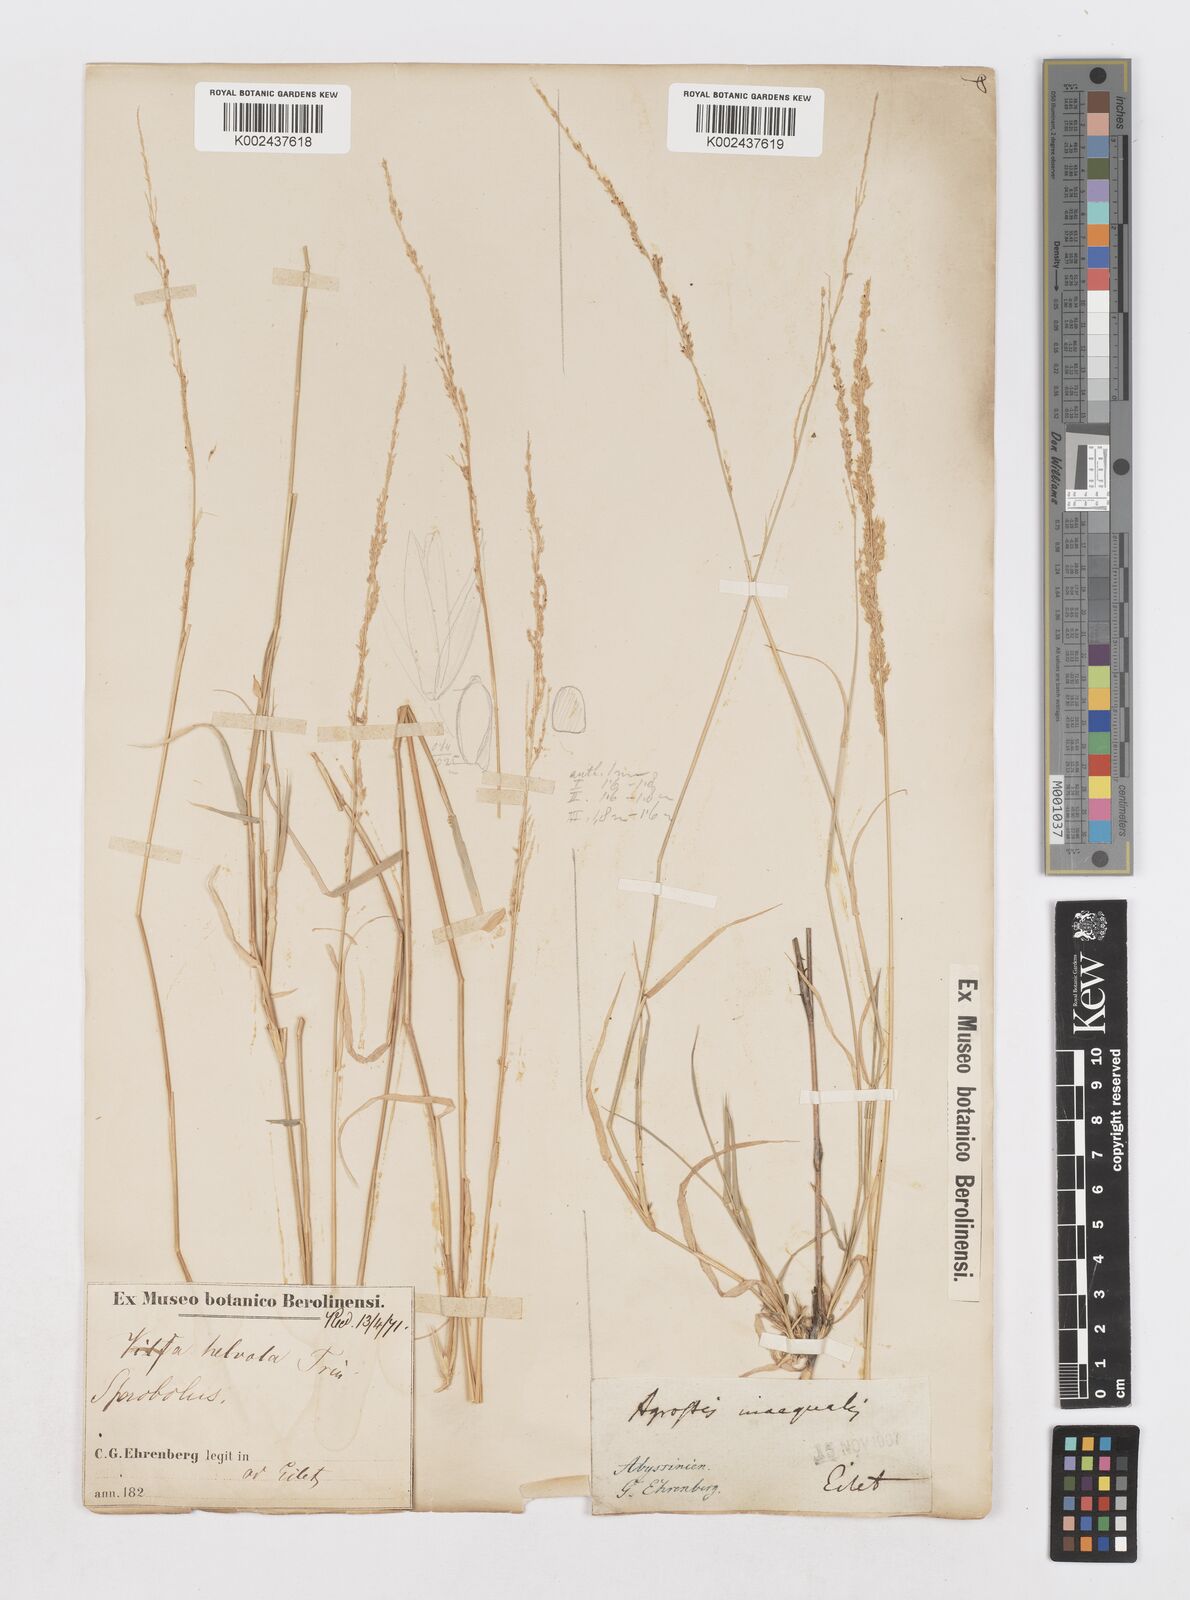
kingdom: Plantae
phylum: Tracheophyta
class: Liliopsida
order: Poales
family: Poaceae
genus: Sporobolus
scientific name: Sporobolus helvolus
